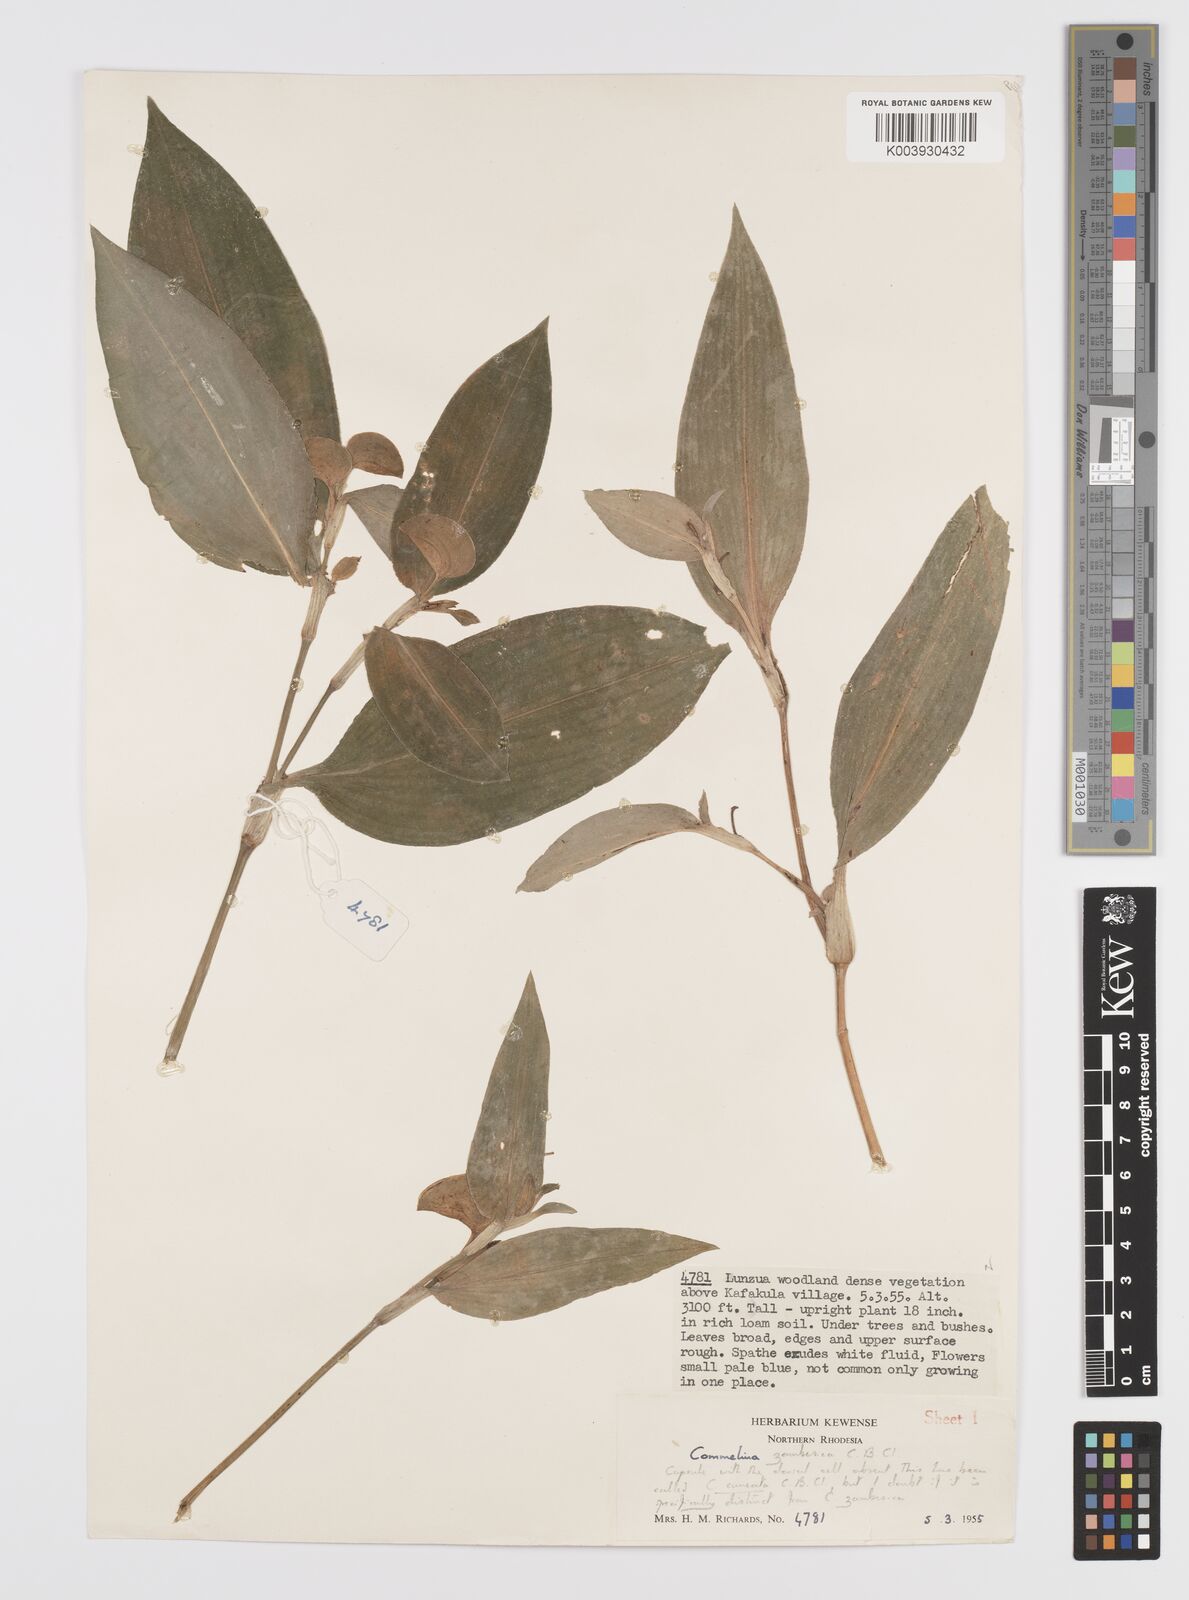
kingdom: Plantae
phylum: Tracheophyta
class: Liliopsida
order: Commelinales
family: Commelinaceae
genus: Commelina
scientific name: Commelina zambesica
